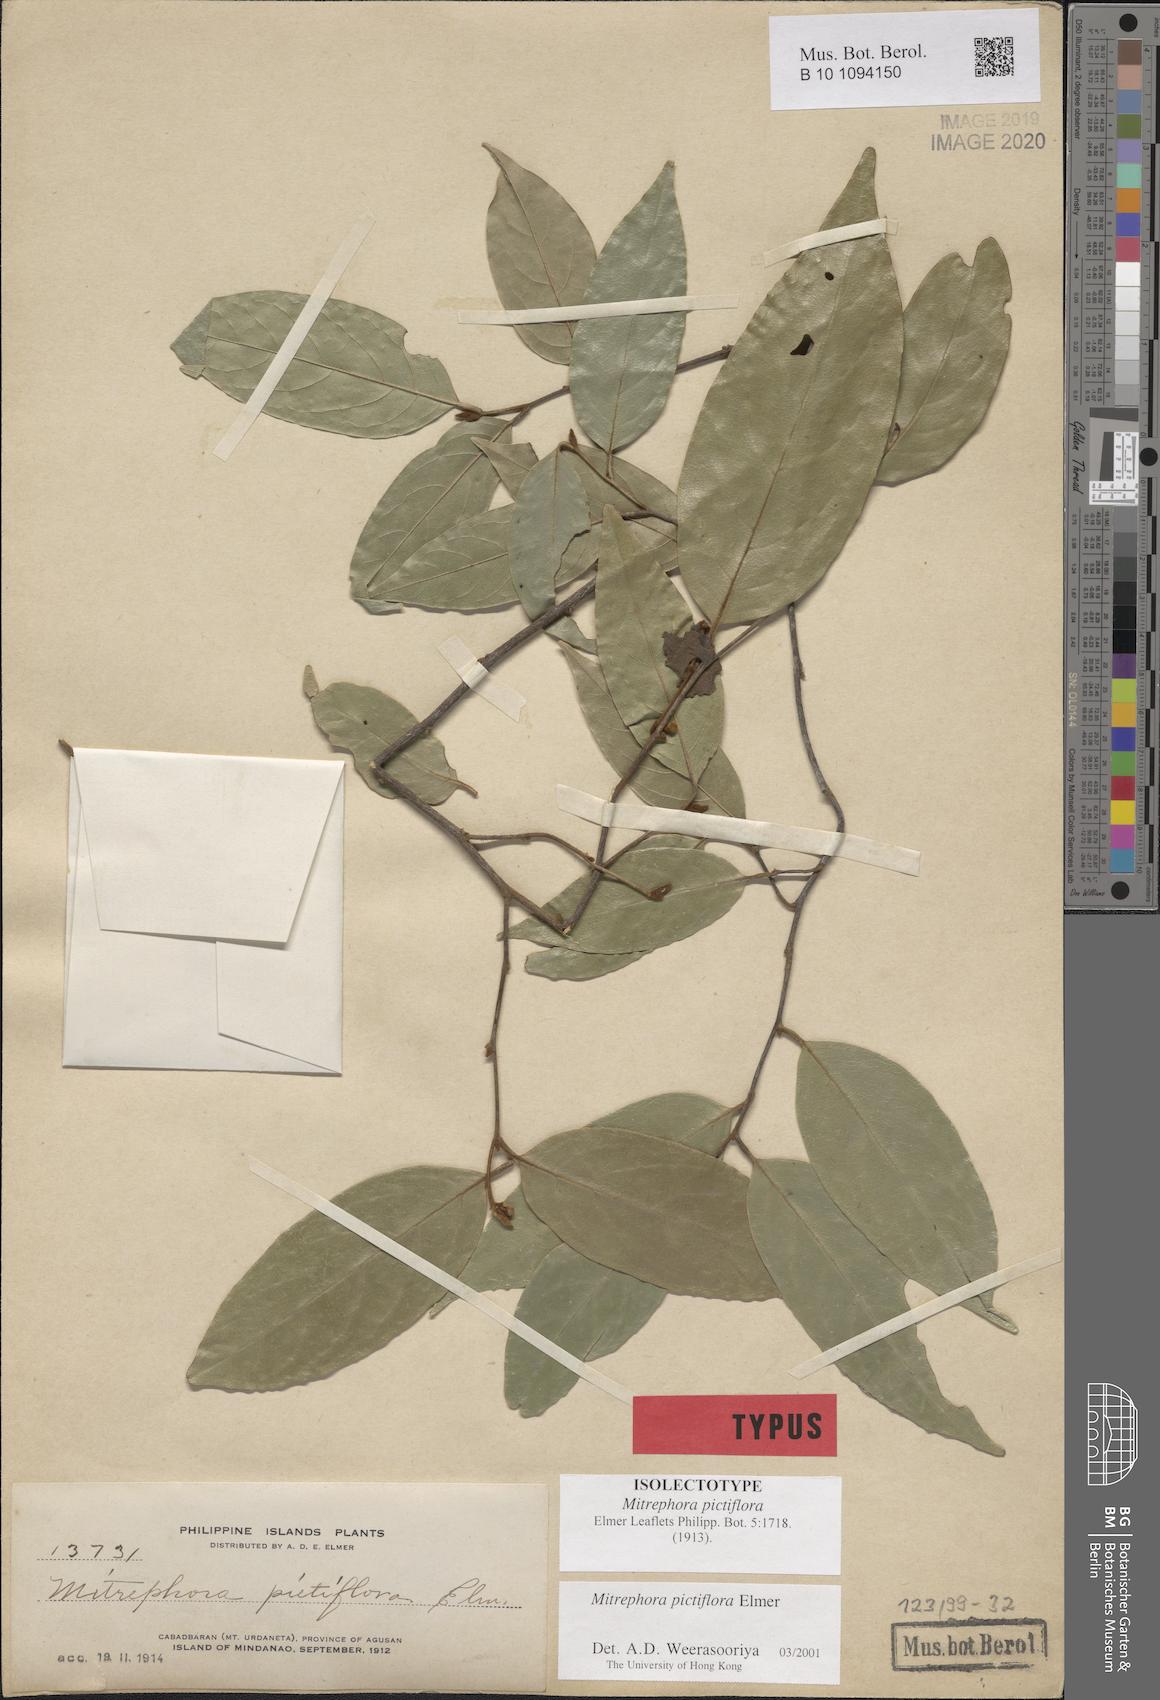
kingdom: Plantae
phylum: Tracheophyta
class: Magnoliopsida
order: Magnoliales
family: Annonaceae
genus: Mitrephora
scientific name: Mitrephora pictiflora
